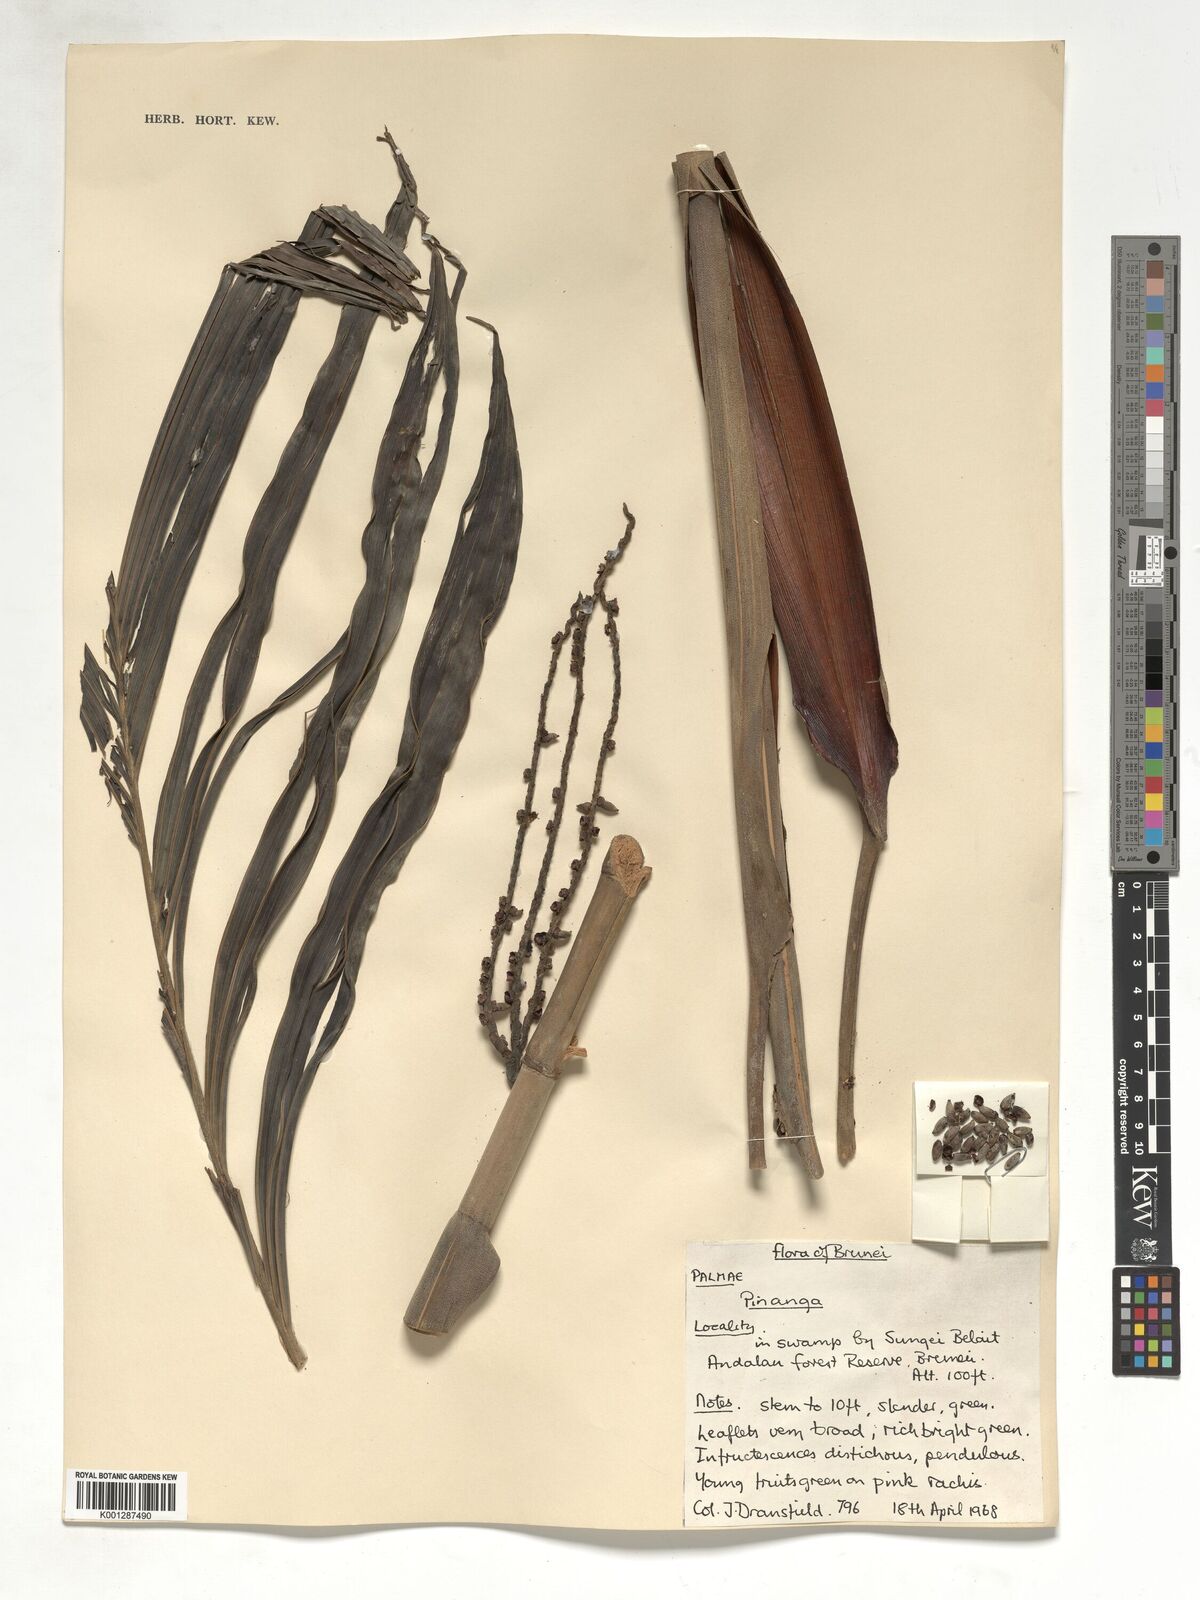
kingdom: Plantae
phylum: Tracheophyta
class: Liliopsida
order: Arecales
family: Arecaceae
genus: Pinanga
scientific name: Pinanga
